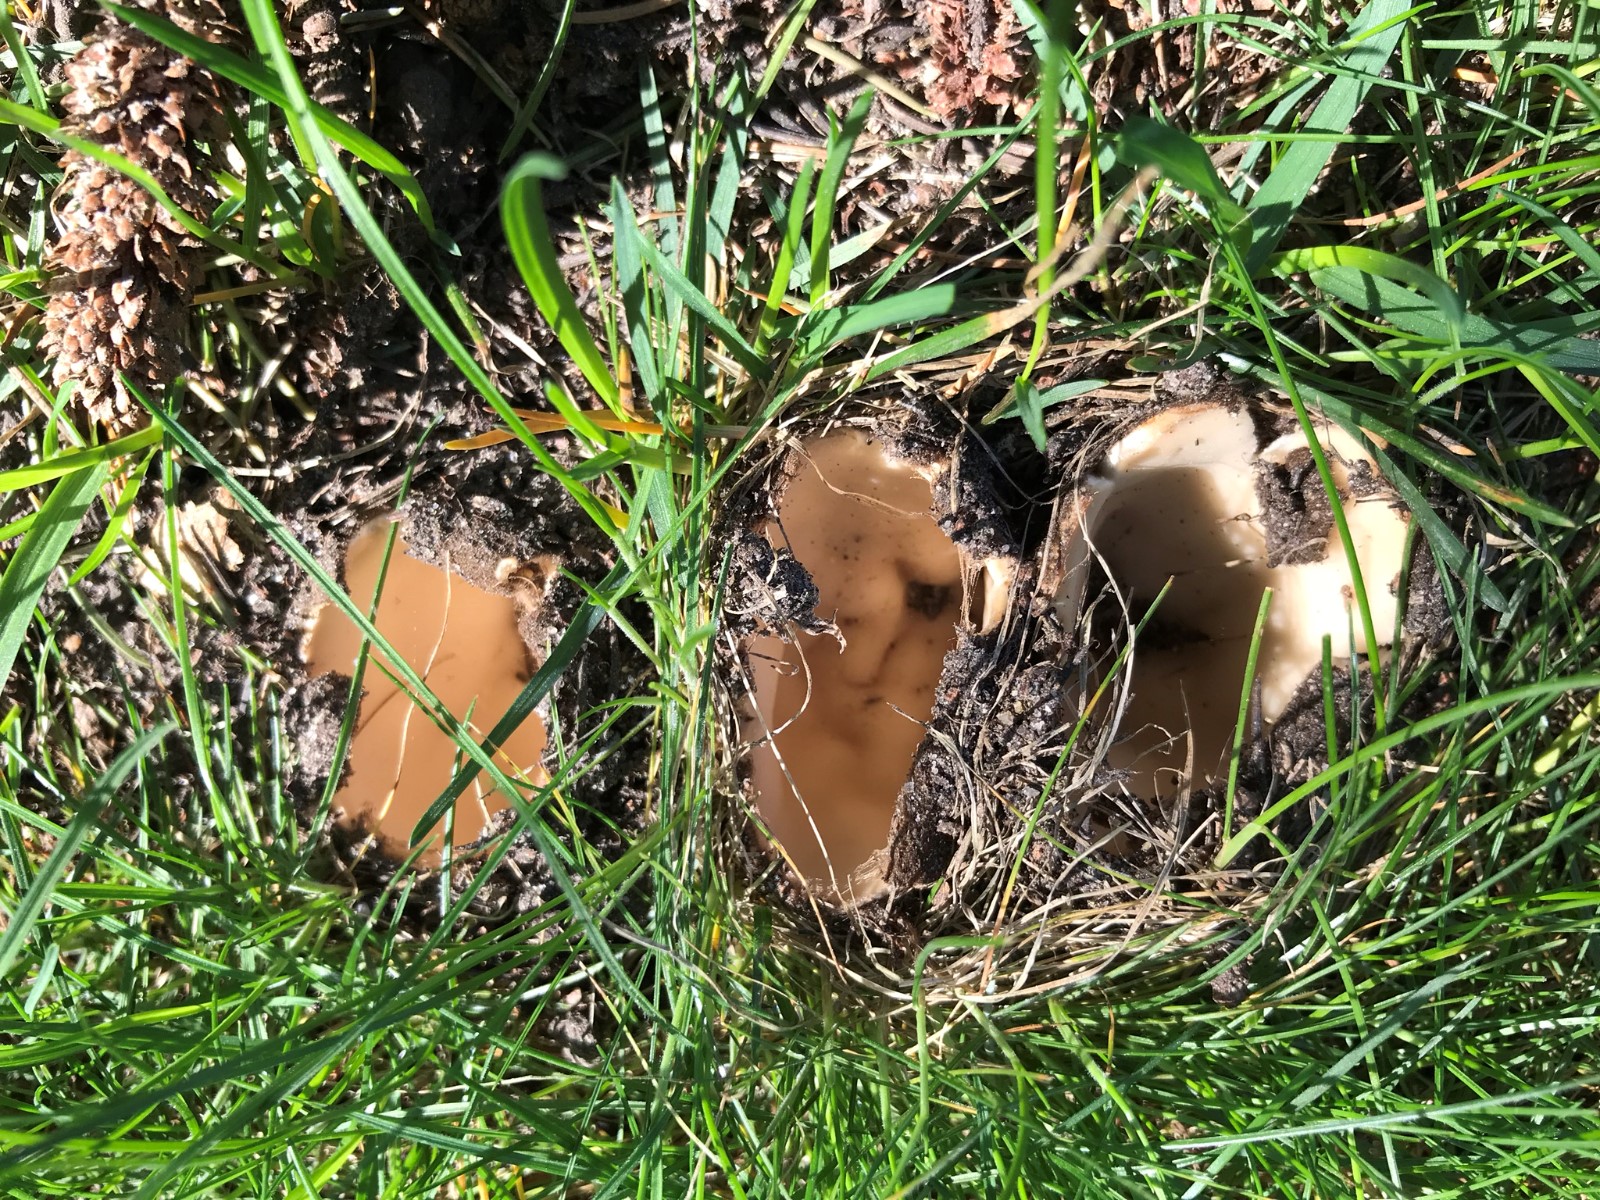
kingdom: Fungi
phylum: Ascomycota
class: Pezizomycetes
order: Pezizales
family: Pyronemataceae
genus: Geopora
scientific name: Geopora sumneriana
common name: vår-jordbæger
